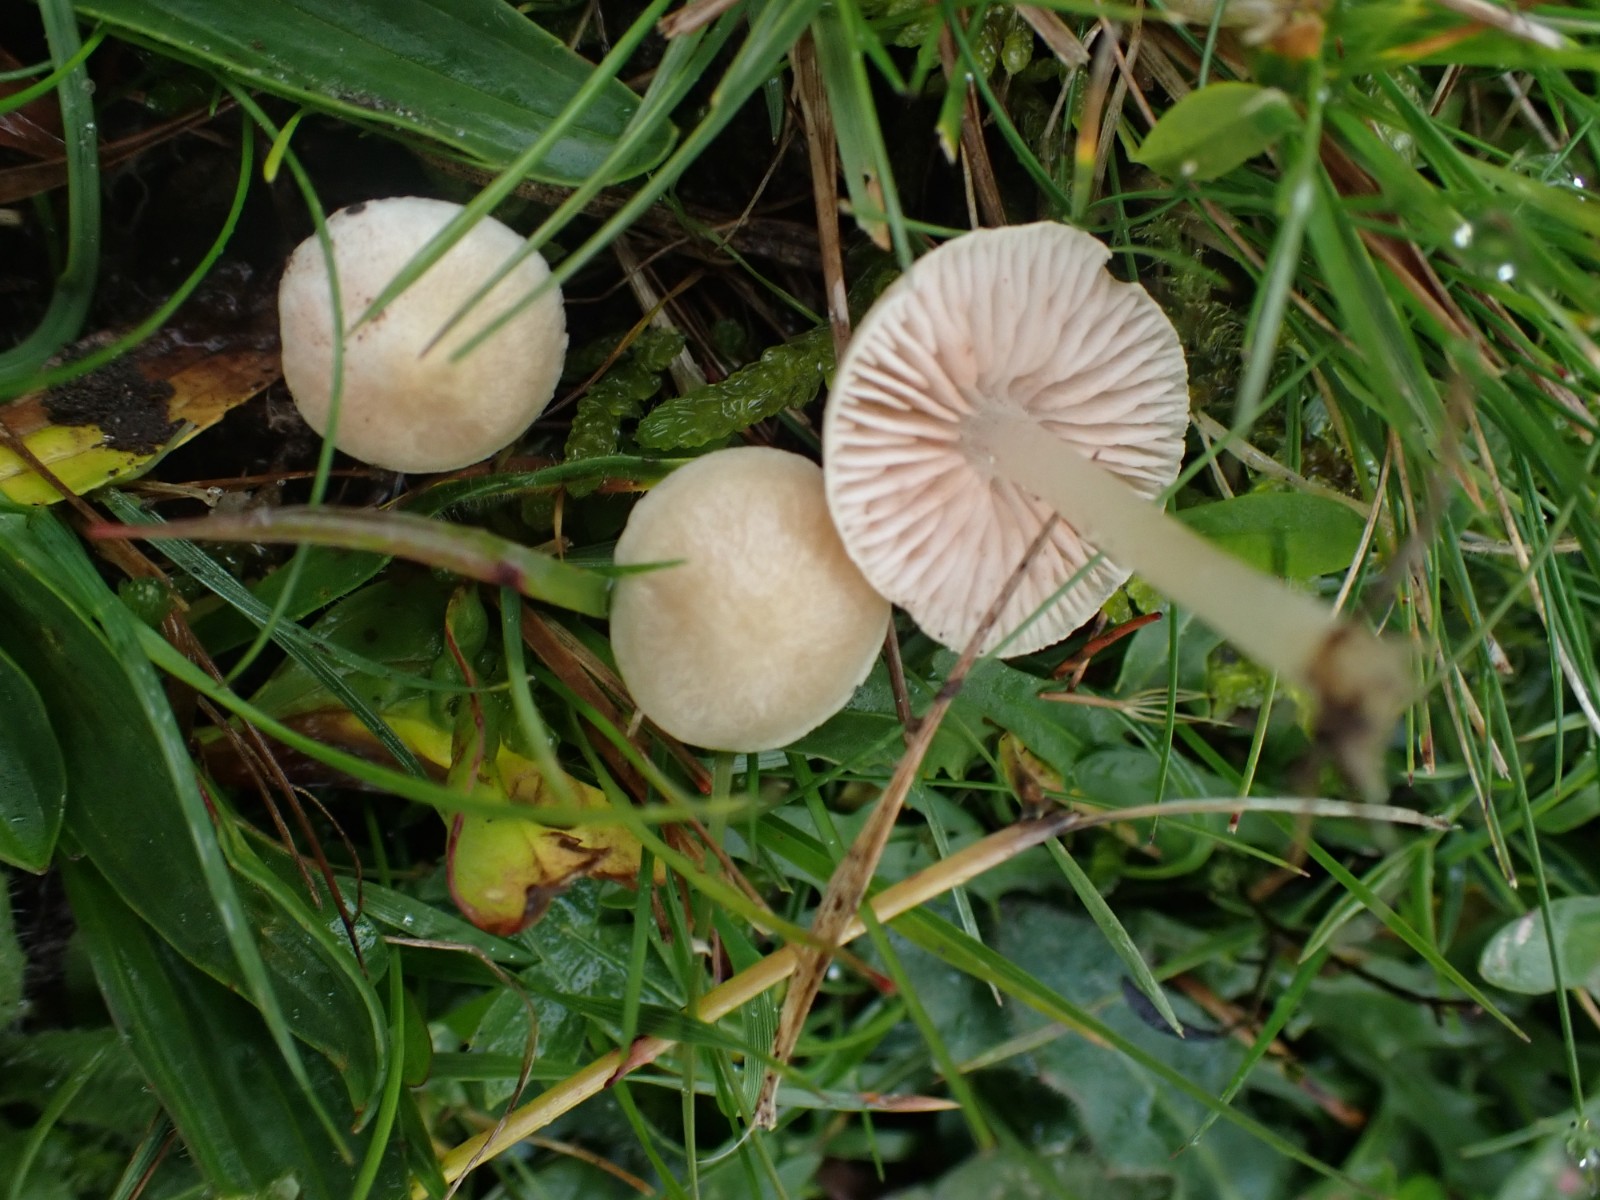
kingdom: Fungi
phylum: Basidiomycota
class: Agaricomycetes
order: Agaricales
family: Entolomataceae
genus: Entoloma
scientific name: Entoloma sericellum
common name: silkehvid rødblad
